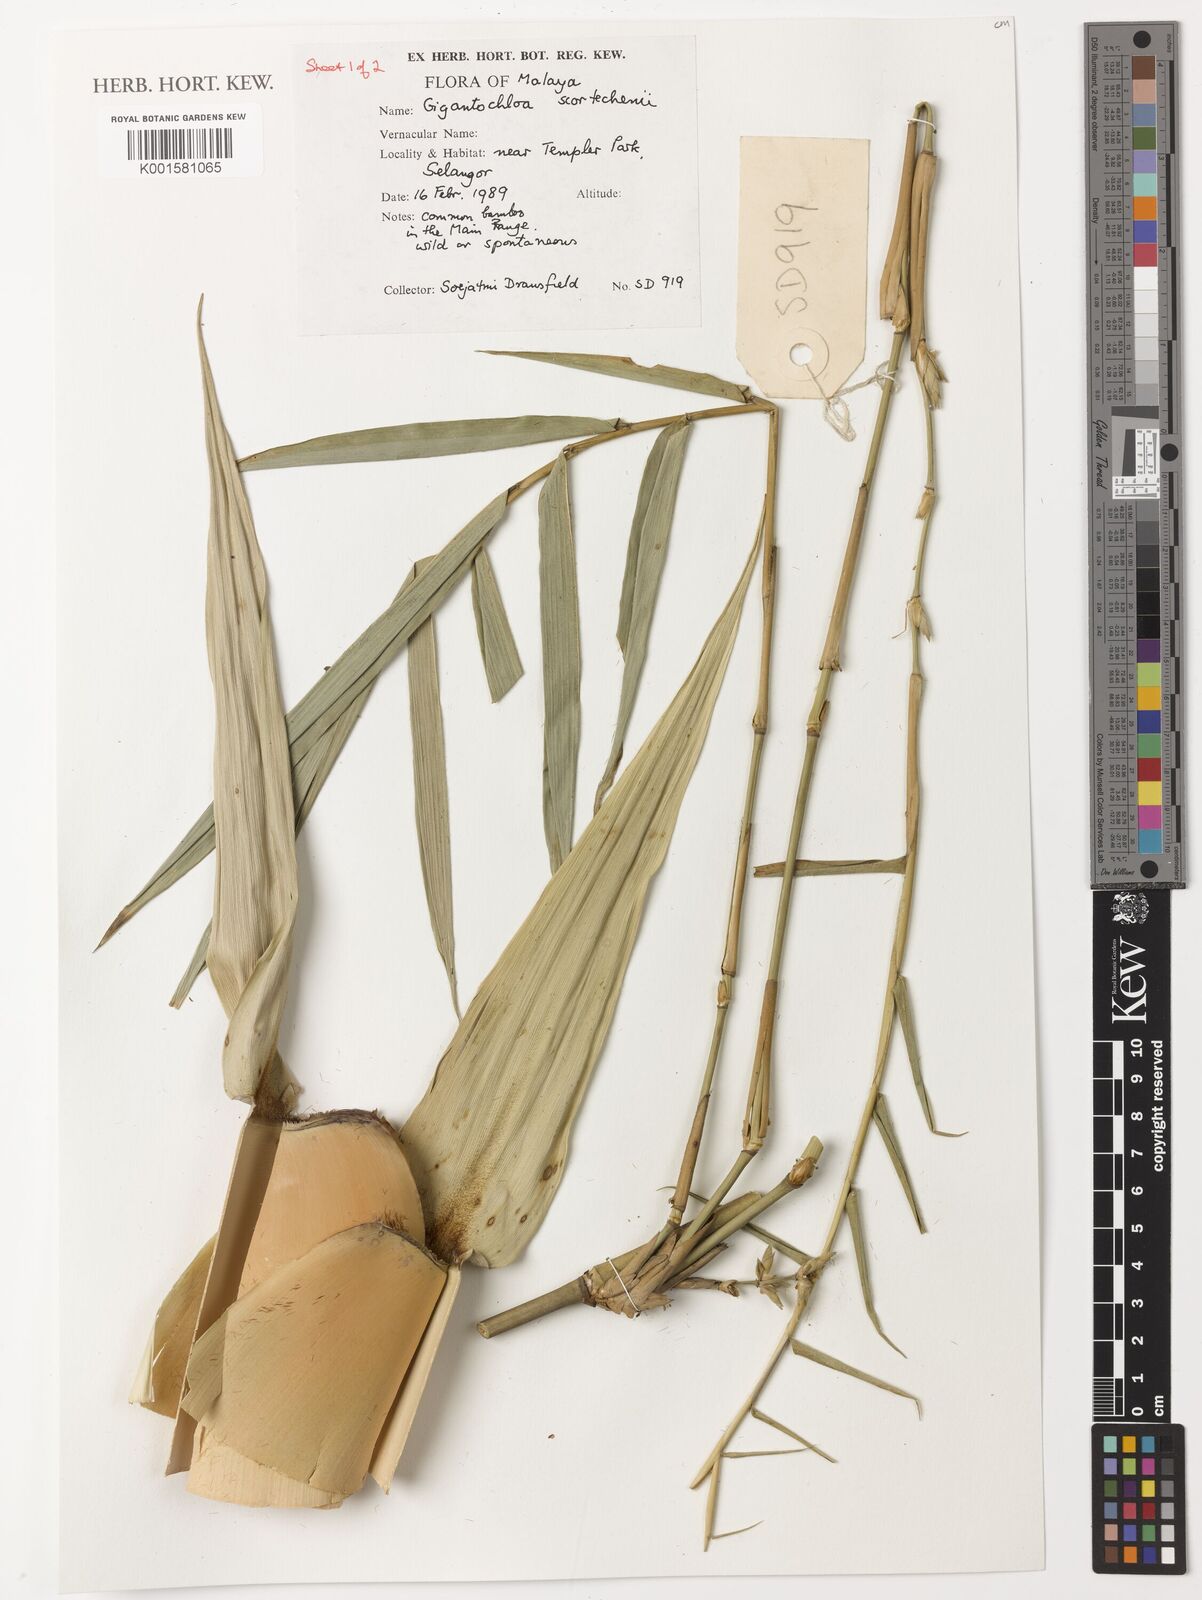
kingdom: Plantae
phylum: Tracheophyta
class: Liliopsida
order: Poales
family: Poaceae
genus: Gigantochloa
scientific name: Gigantochloa scortechinii
